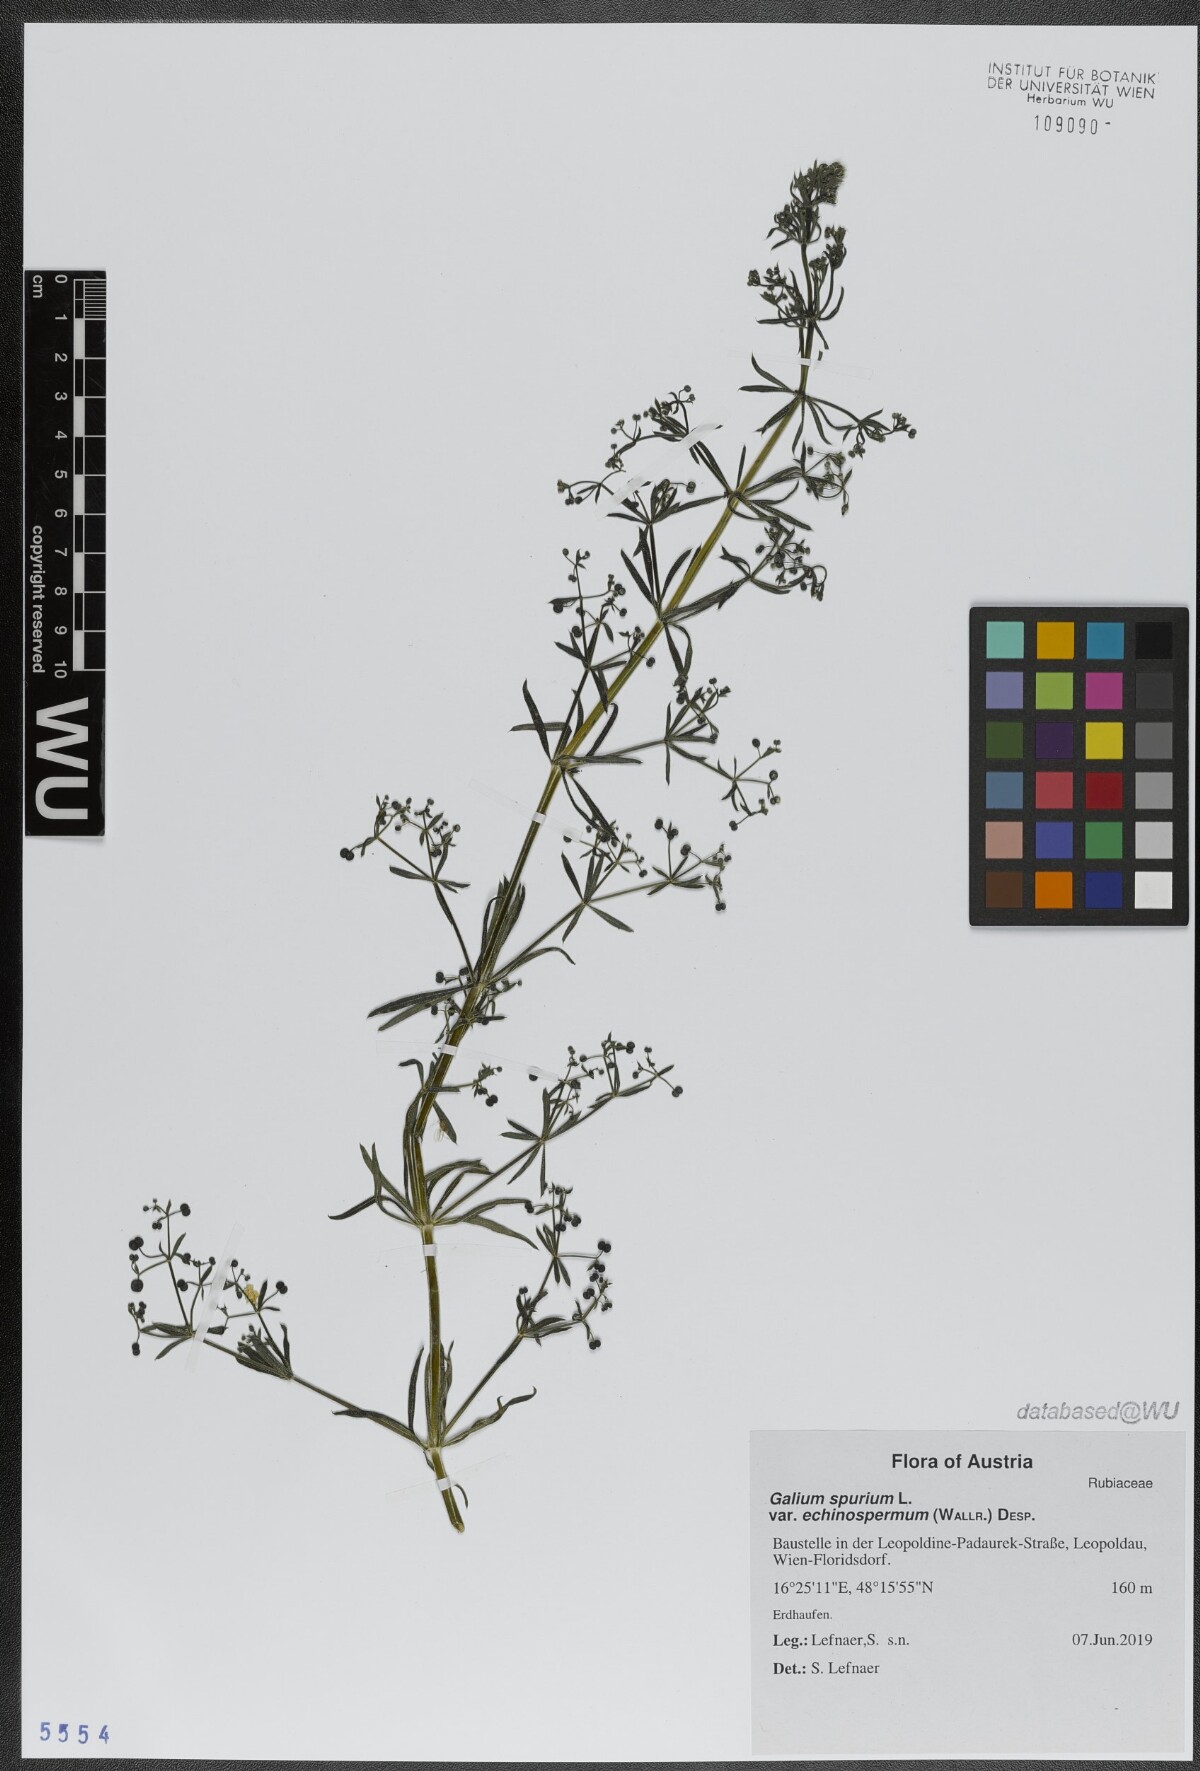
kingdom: Plantae
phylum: Tracheophyta
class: Magnoliopsida
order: Gentianales
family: Rubiaceae
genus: Galium
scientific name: Galium
